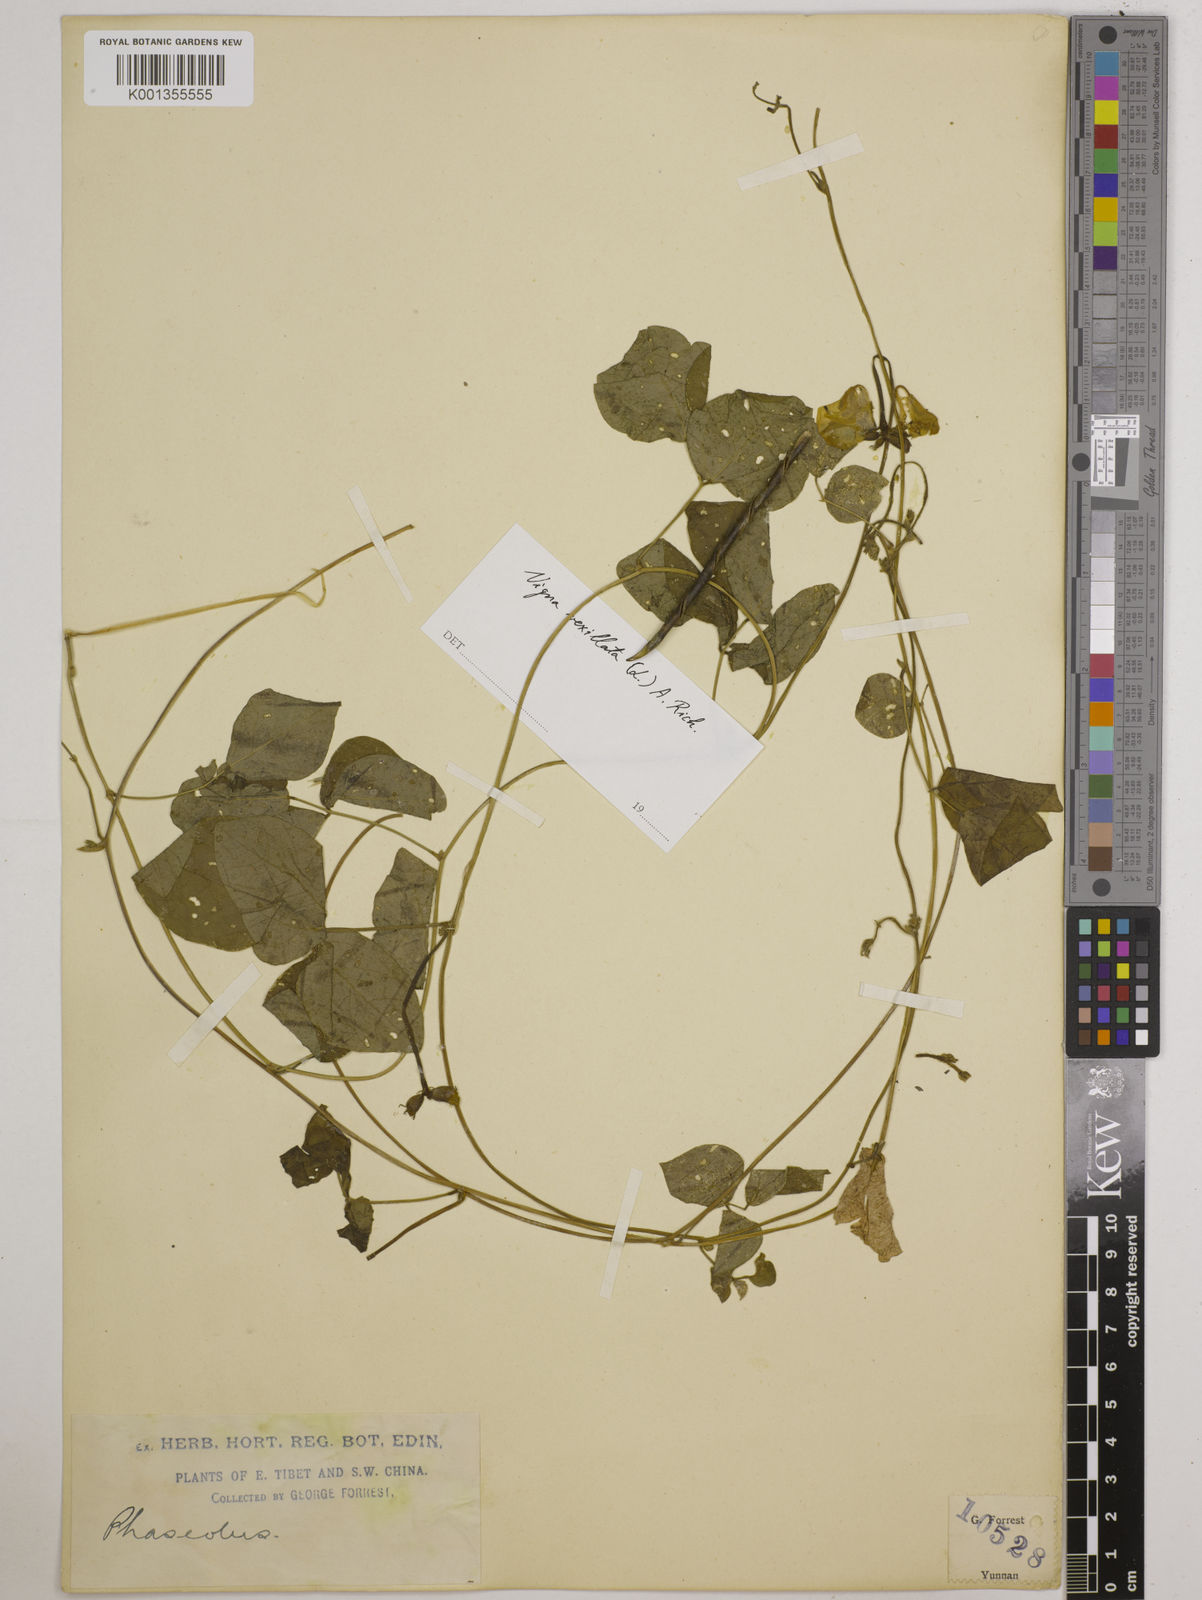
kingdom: Plantae
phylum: Tracheophyta
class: Magnoliopsida
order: Fabales
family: Fabaceae
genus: Vigna
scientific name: Vigna vexillata
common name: Zombi pea
